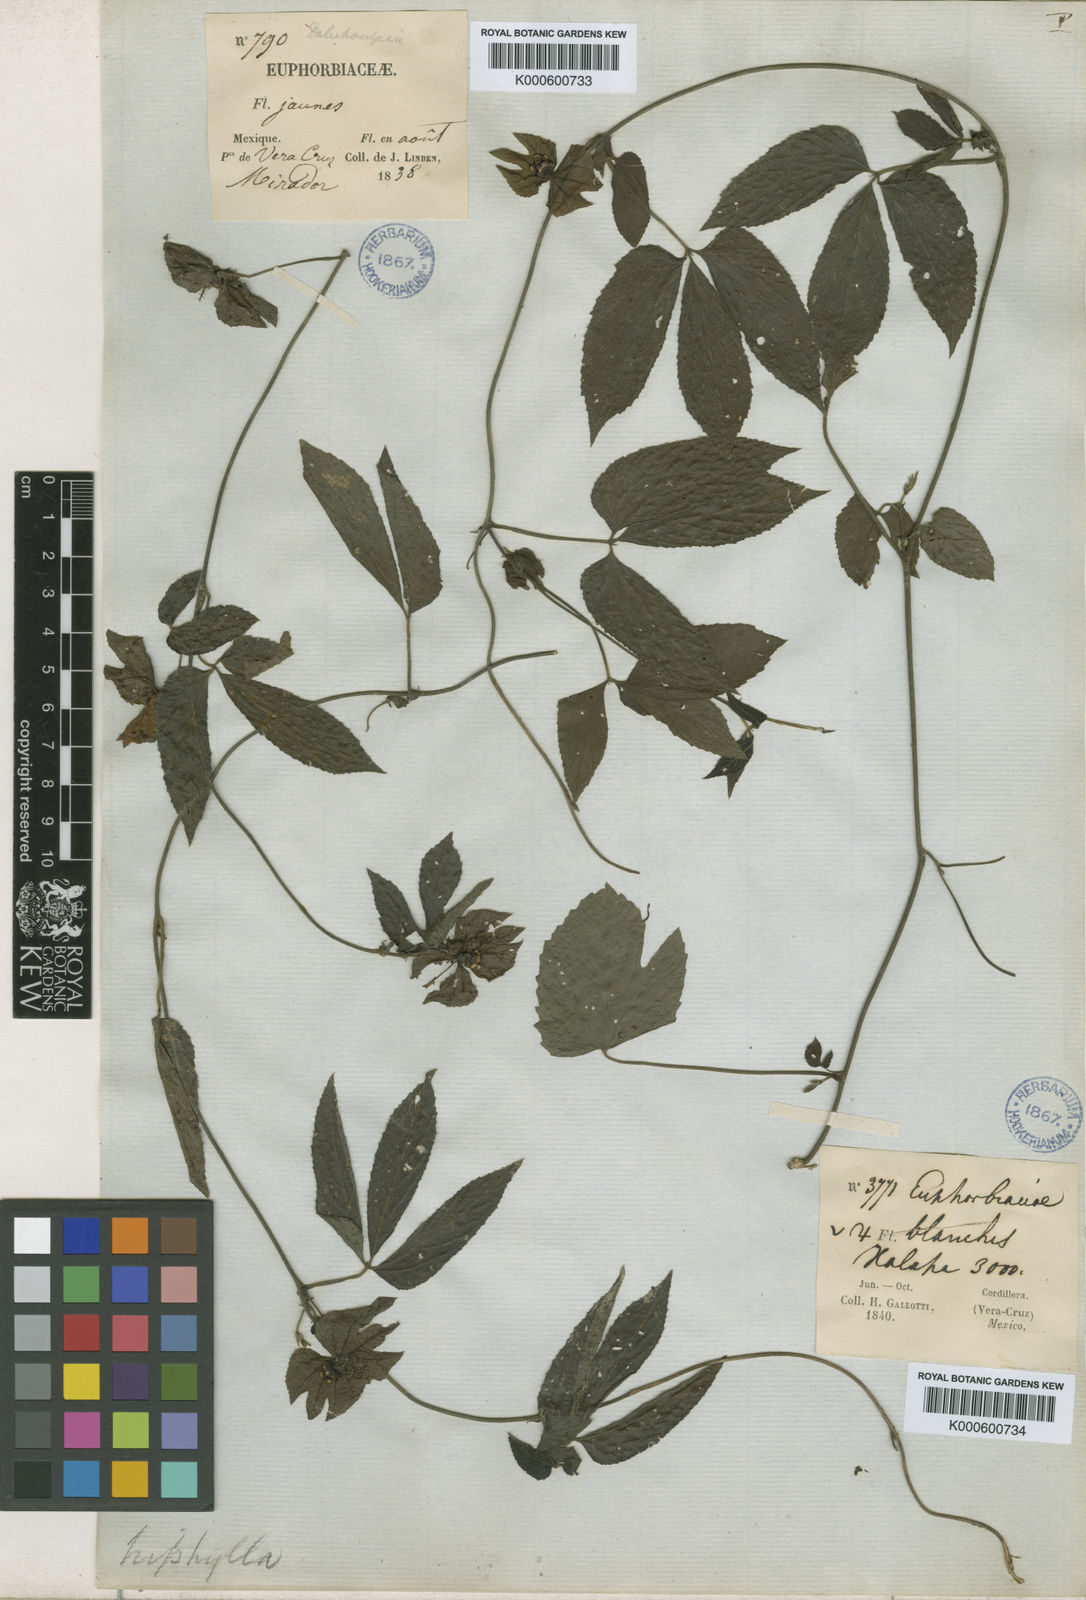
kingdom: Plantae
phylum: Tracheophyta
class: Magnoliopsida
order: Malpighiales
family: Euphorbiaceae
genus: Dalechampia
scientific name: Dalechampia triphylla
